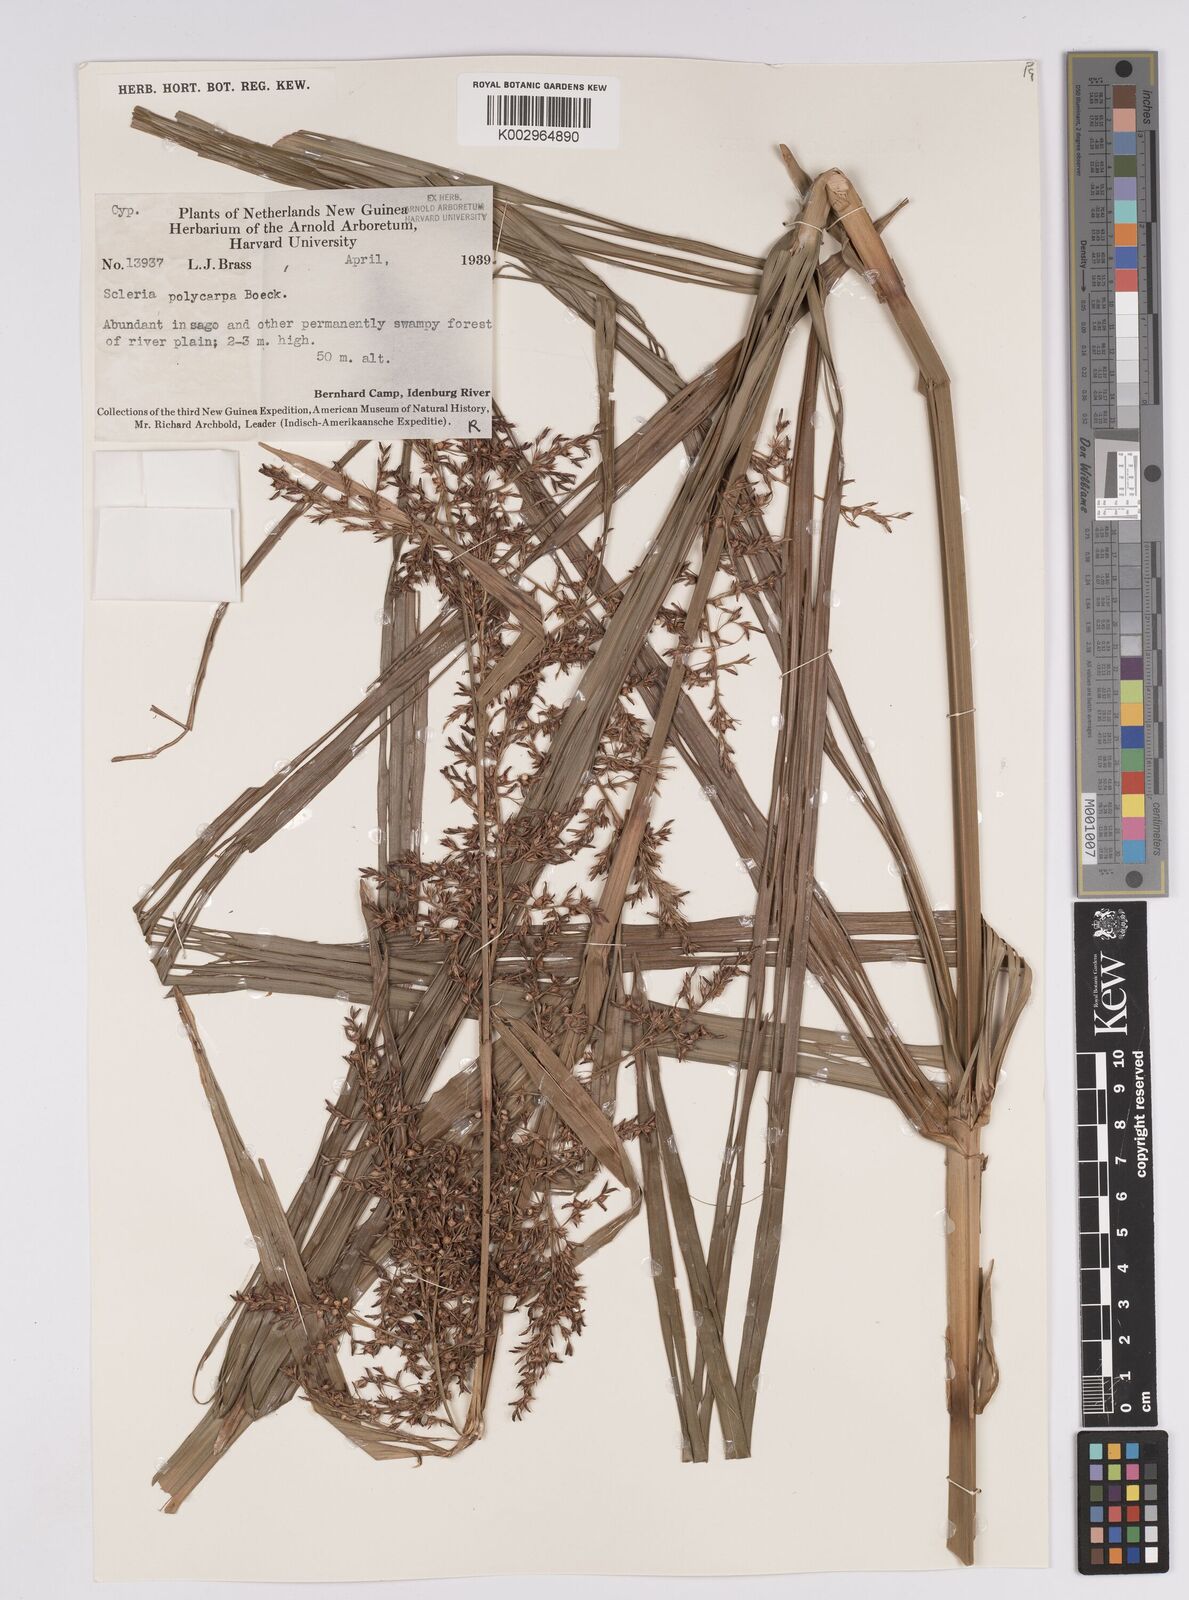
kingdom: Plantae
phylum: Tracheophyta
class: Liliopsida
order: Poales
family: Cyperaceae
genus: Scleria
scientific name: Scleria polycarpa
